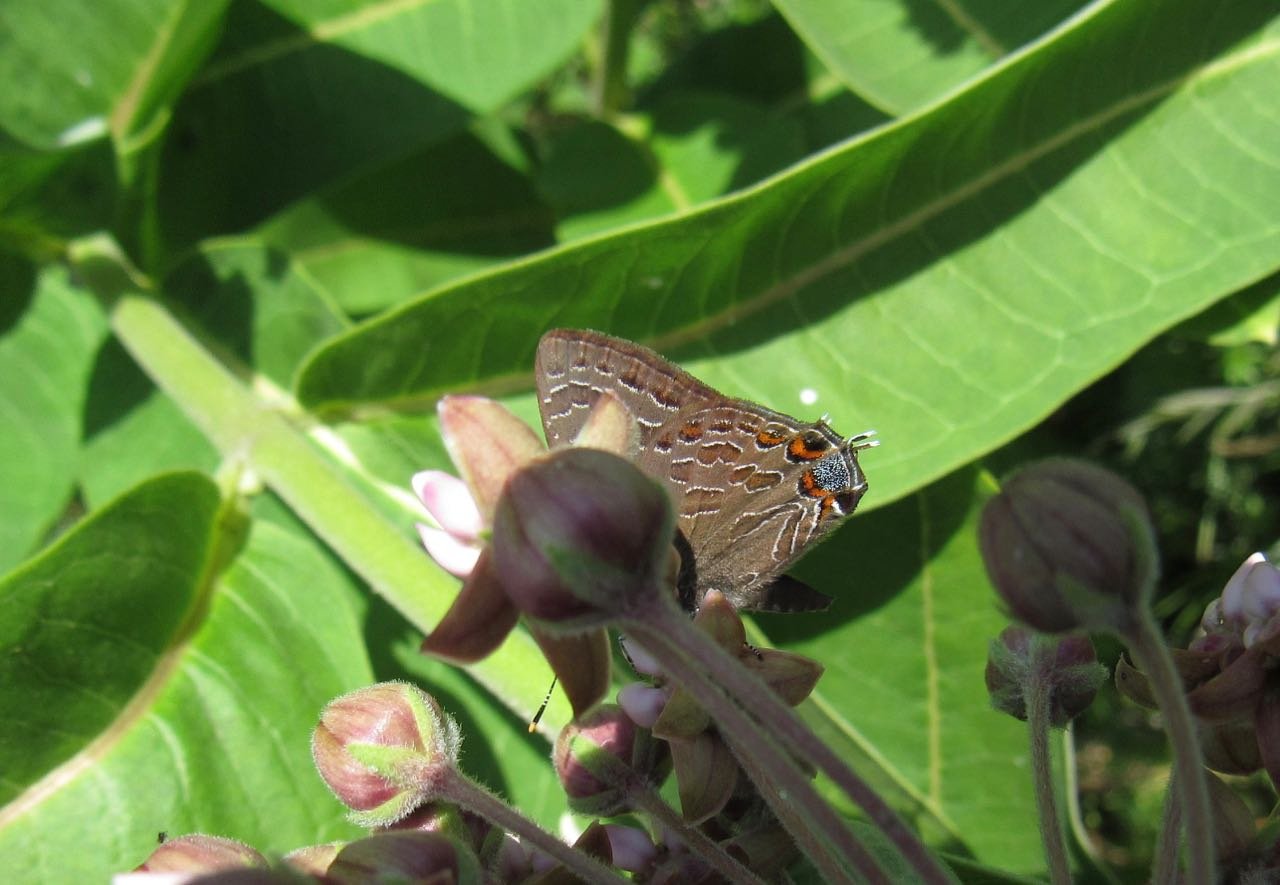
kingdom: Animalia
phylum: Arthropoda
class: Insecta
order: Lepidoptera
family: Lycaenidae
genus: Satyrium
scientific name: Satyrium liparops
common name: Striped Hairstreak
